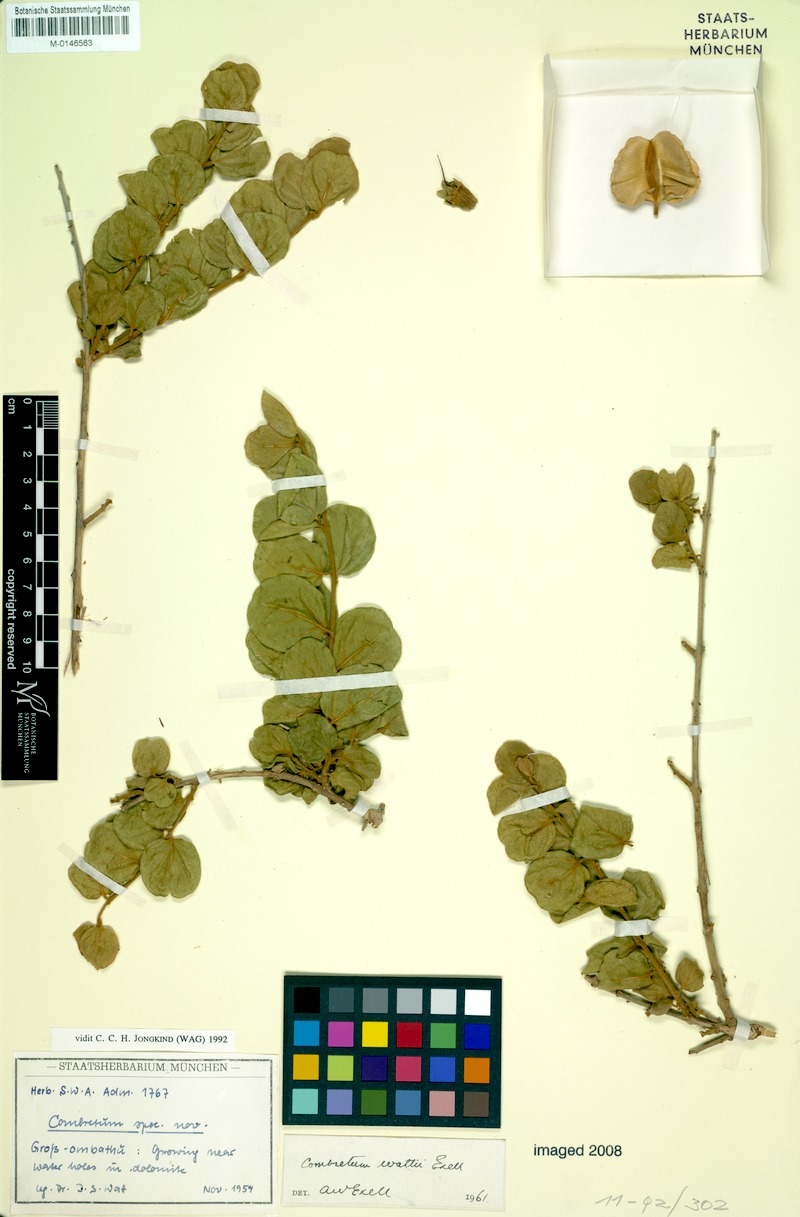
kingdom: Plantae
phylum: Tracheophyta
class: Magnoliopsida
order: Myrtales
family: Combretaceae
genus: Combretum
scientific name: Combretum wattii
